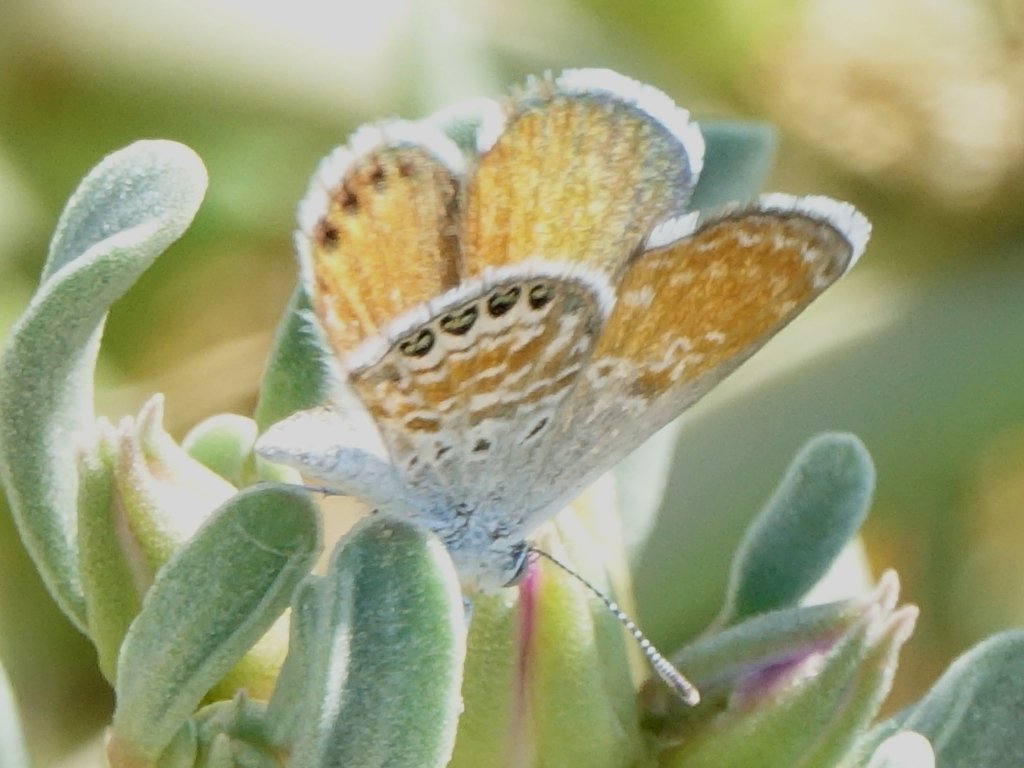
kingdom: Animalia
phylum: Arthropoda
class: Insecta
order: Lepidoptera
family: Lycaenidae
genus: Brephidium
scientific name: Brephidium exilis
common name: Western Pygmy-Blue
